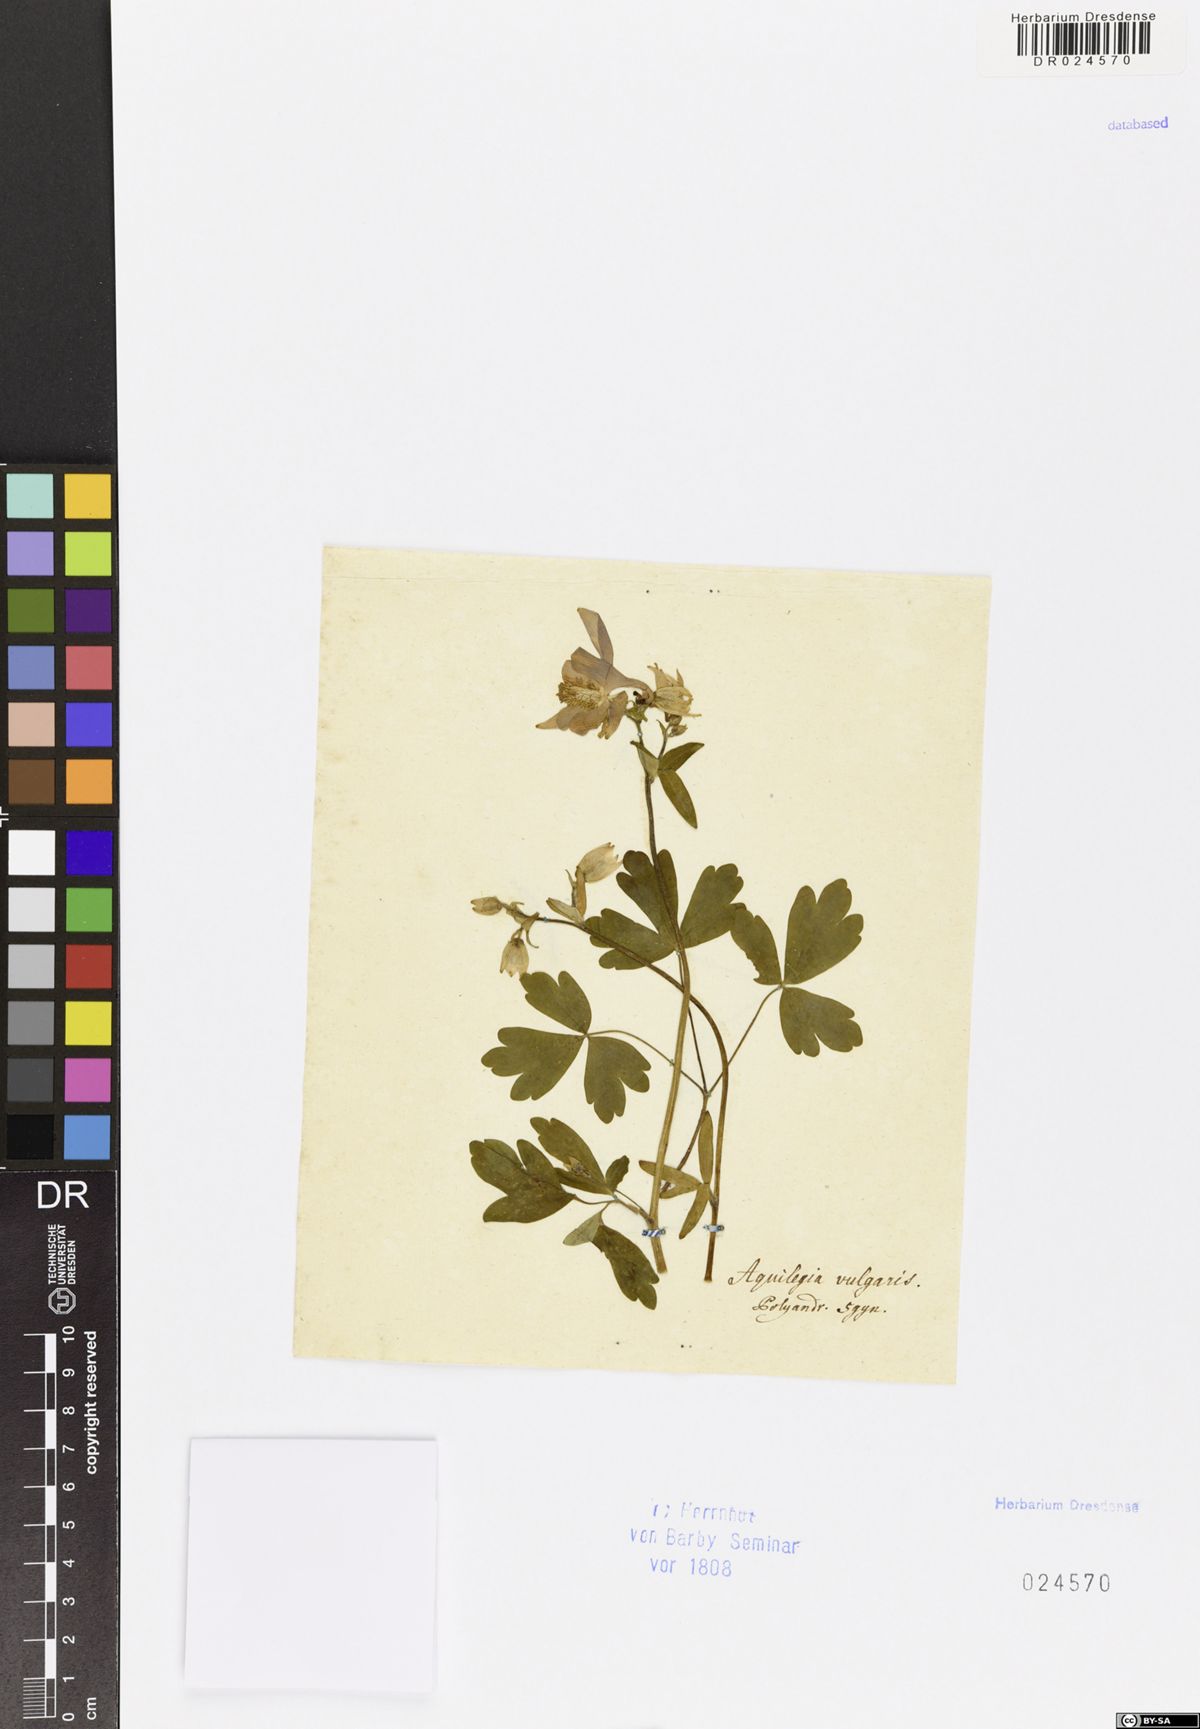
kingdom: Plantae
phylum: Tracheophyta
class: Magnoliopsida
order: Ranunculales
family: Ranunculaceae
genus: Aquilegia
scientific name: Aquilegia vulgaris
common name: Columbine
